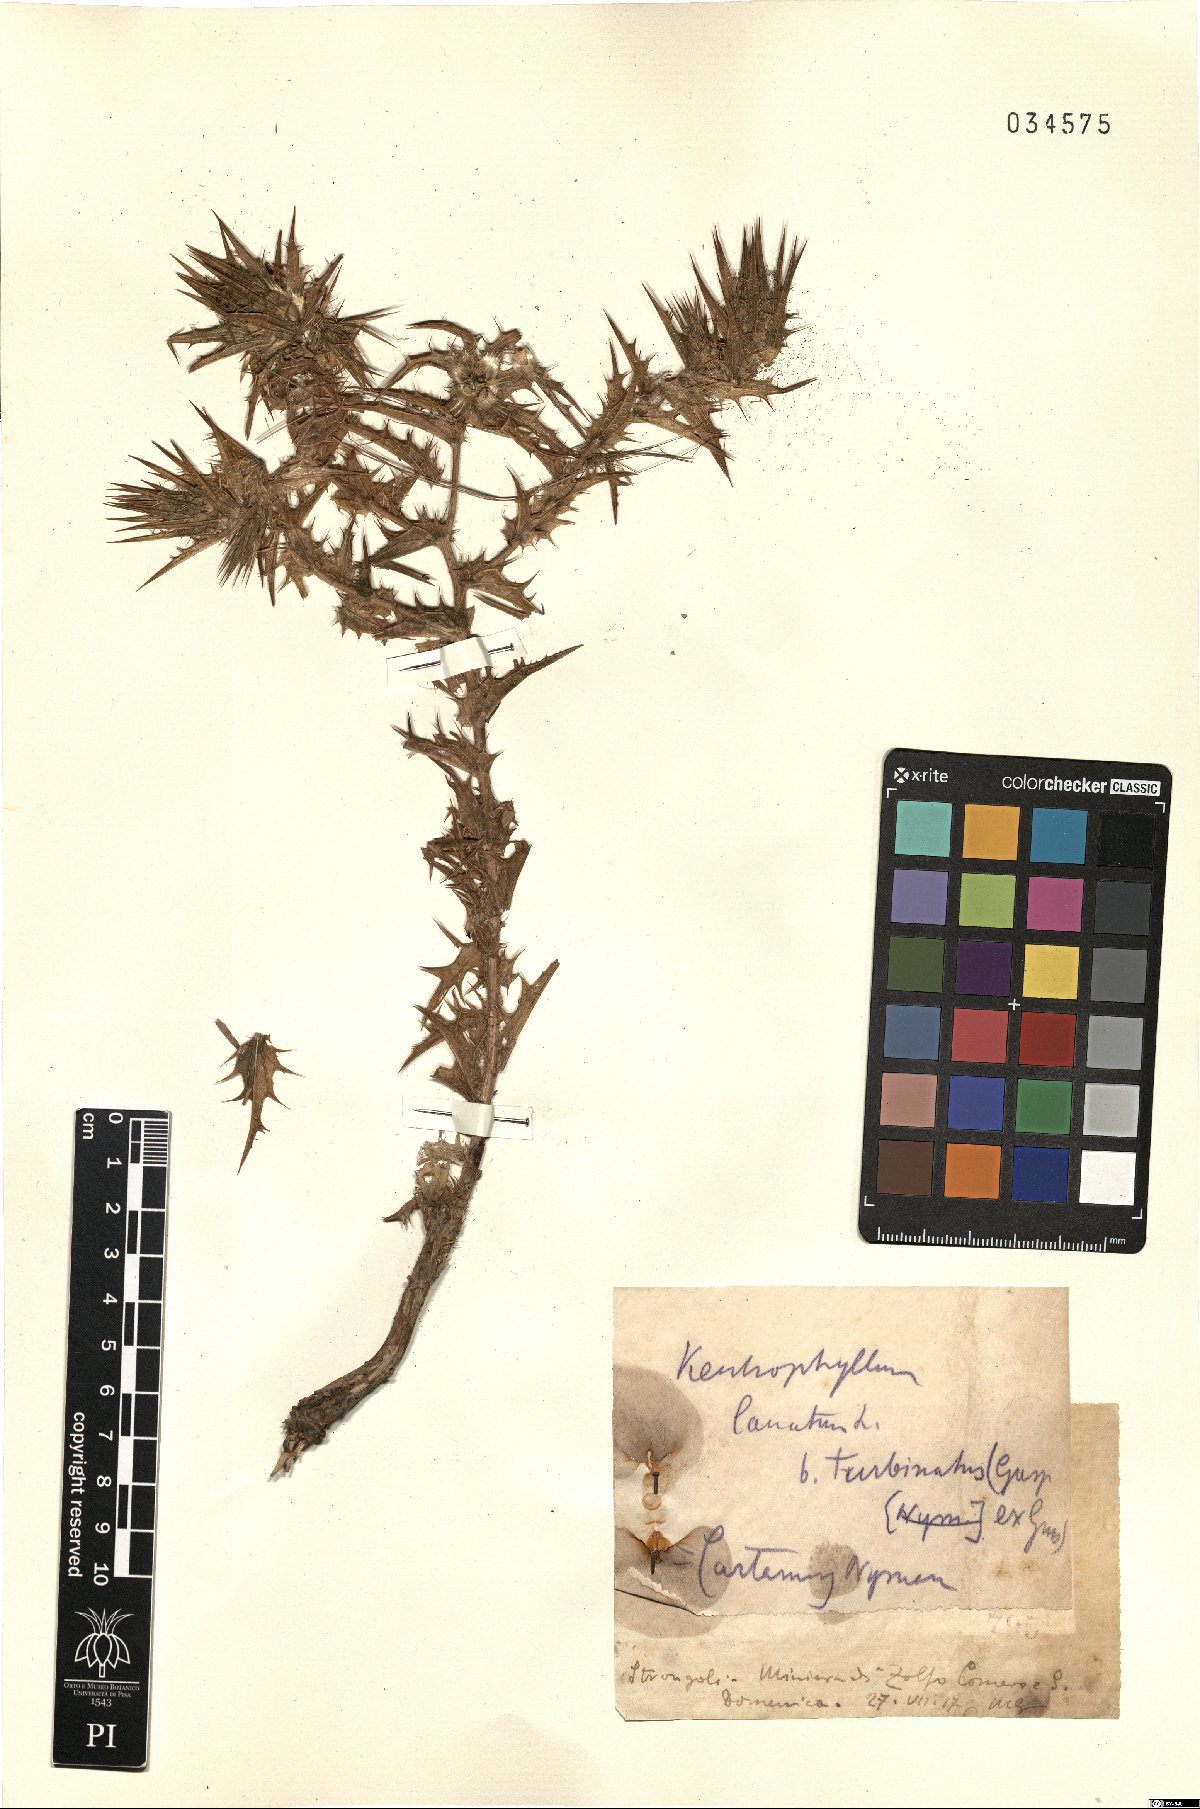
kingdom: Plantae
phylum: Tracheophyta
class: Magnoliopsida
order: Asterales
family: Asteraceae
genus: Carthamus
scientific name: Carthamus lanatus
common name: Downy safflower
